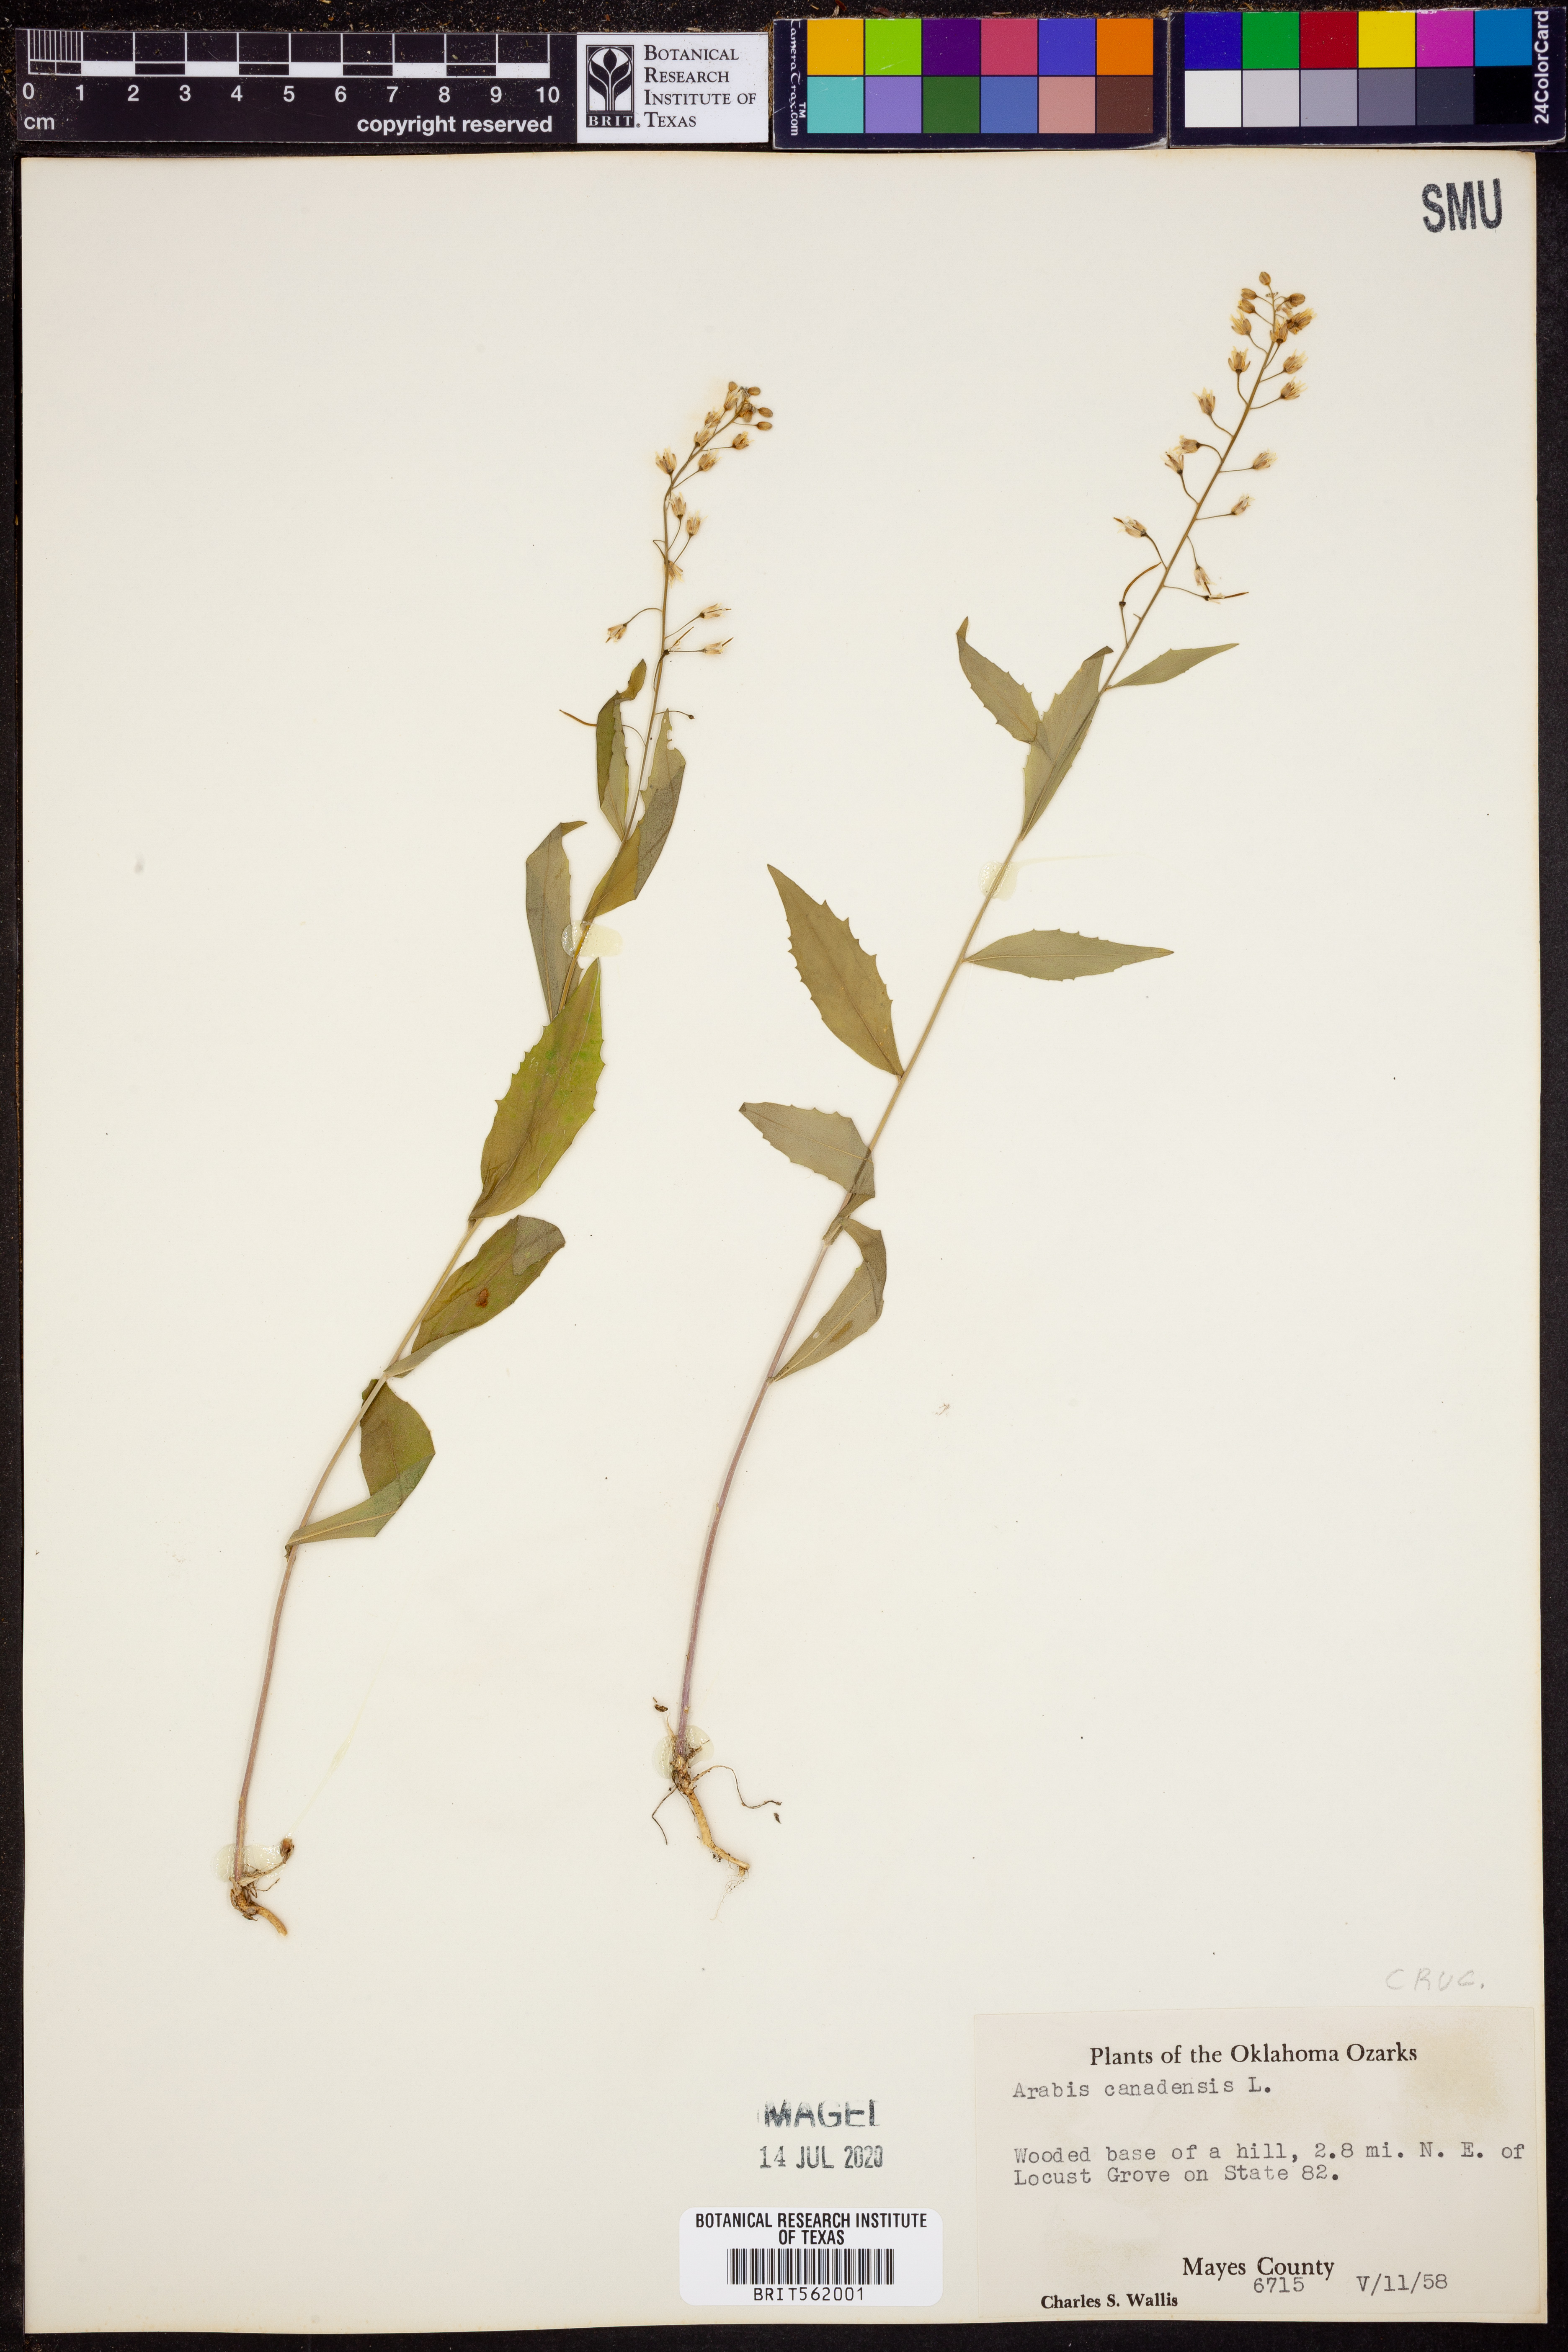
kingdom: Plantae
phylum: Tracheophyta
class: Magnoliopsida
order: Brassicales
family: Brassicaceae
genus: Borodinia
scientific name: Borodinia canadensis
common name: Sicklepod
